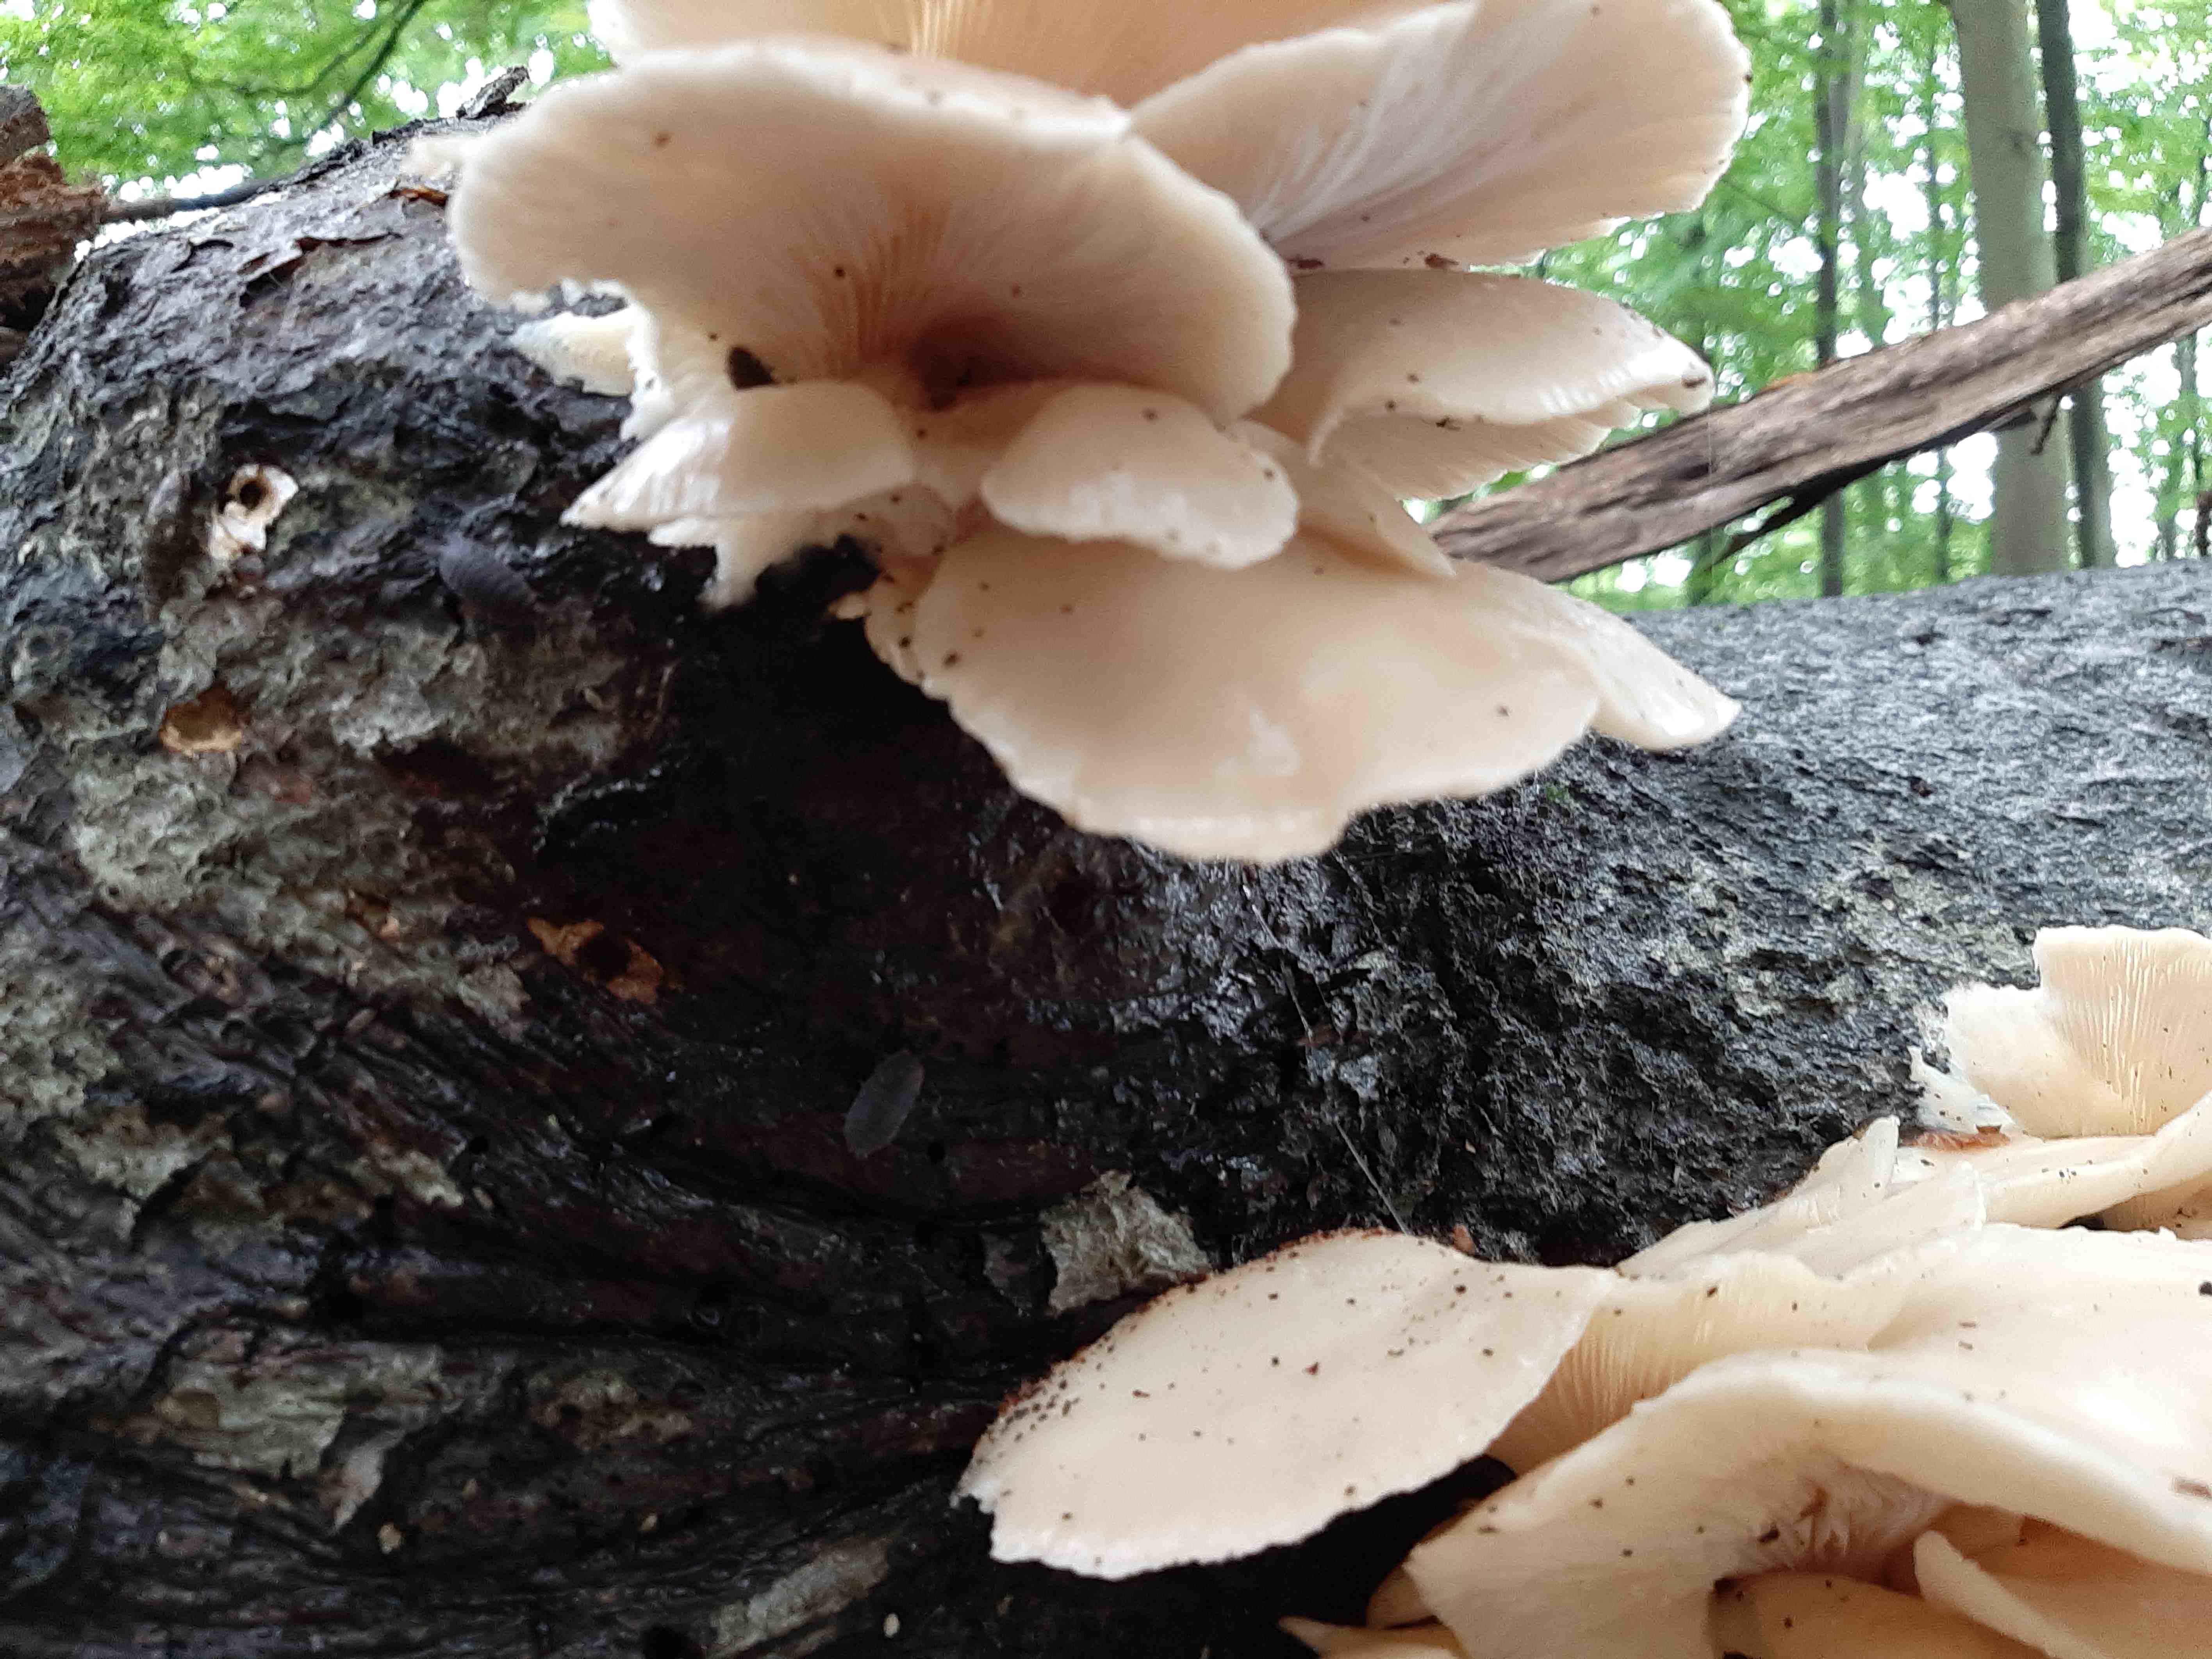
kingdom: Fungi
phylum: Basidiomycota
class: Agaricomycetes
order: Agaricales
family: Pleurotaceae
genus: Pleurotus
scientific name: Pleurotus pulmonarius
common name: sommer-østershat
